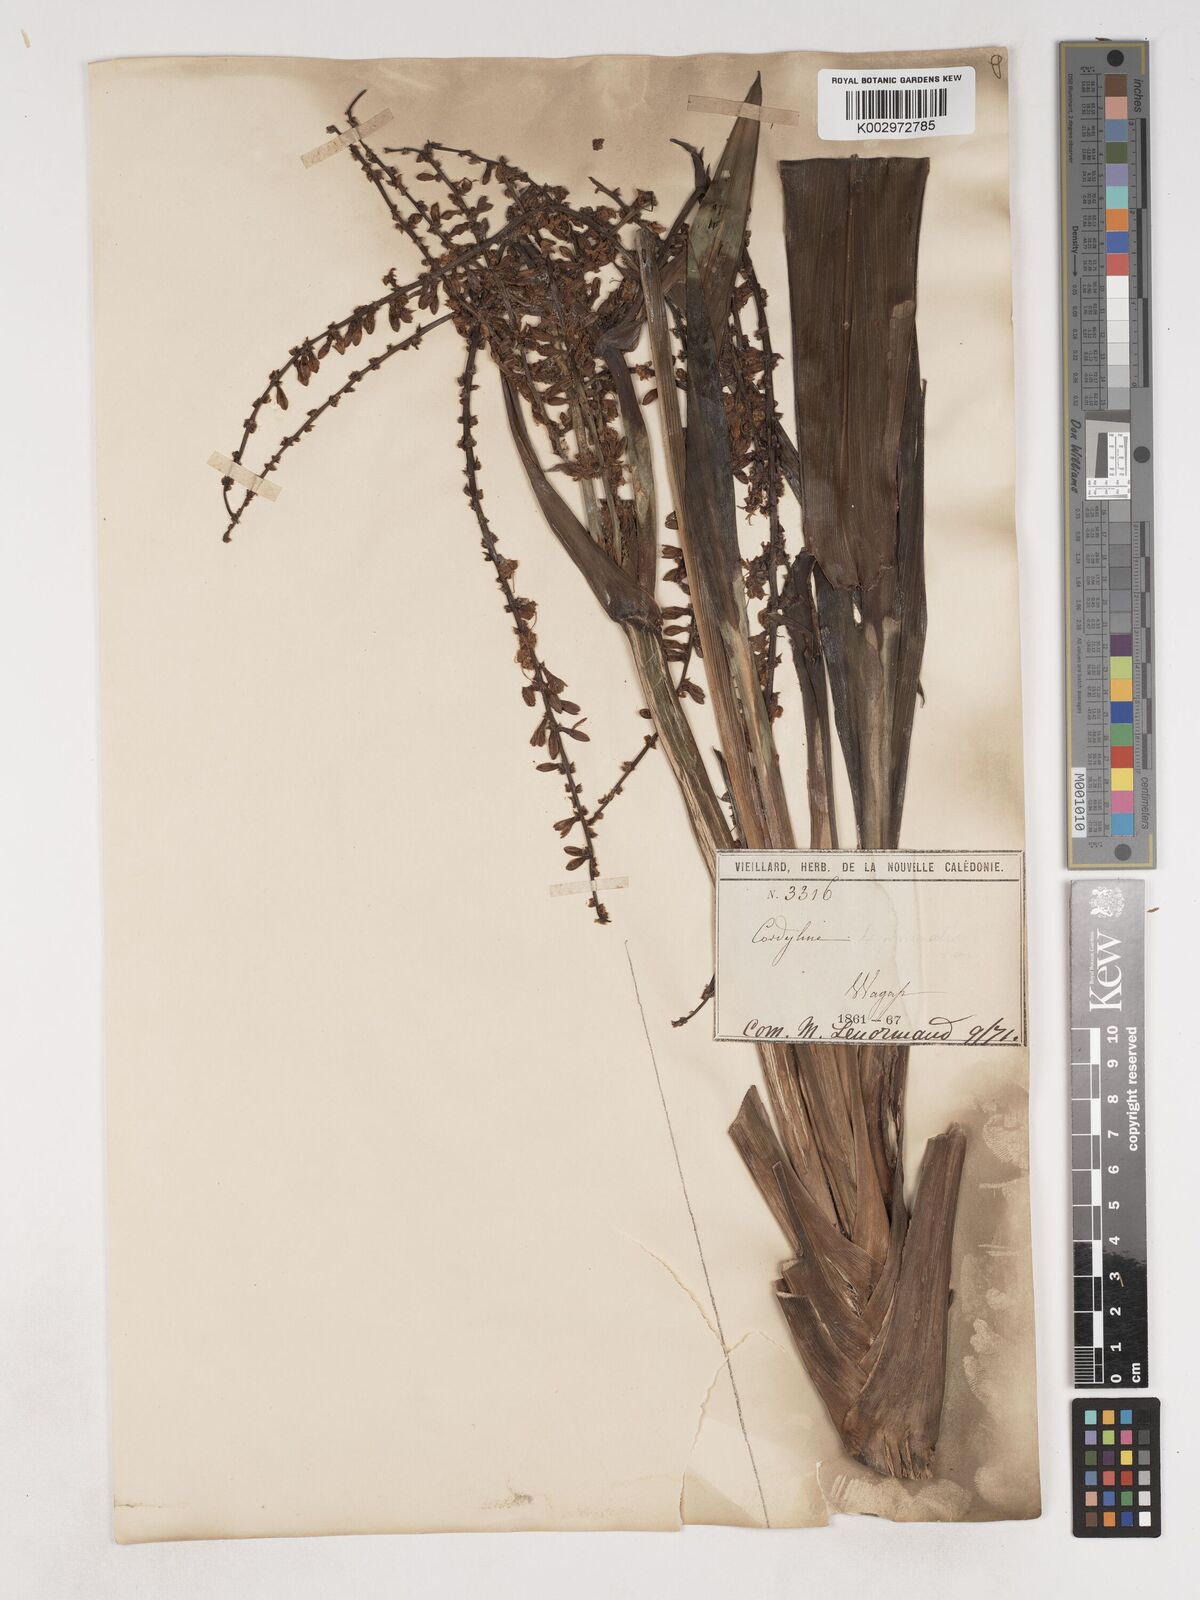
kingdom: Plantae
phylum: Tracheophyta
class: Liliopsida
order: Asparagales
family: Asparagaceae
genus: Cordyline
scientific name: Cordyline fruticosa
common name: Good-luck-plant
